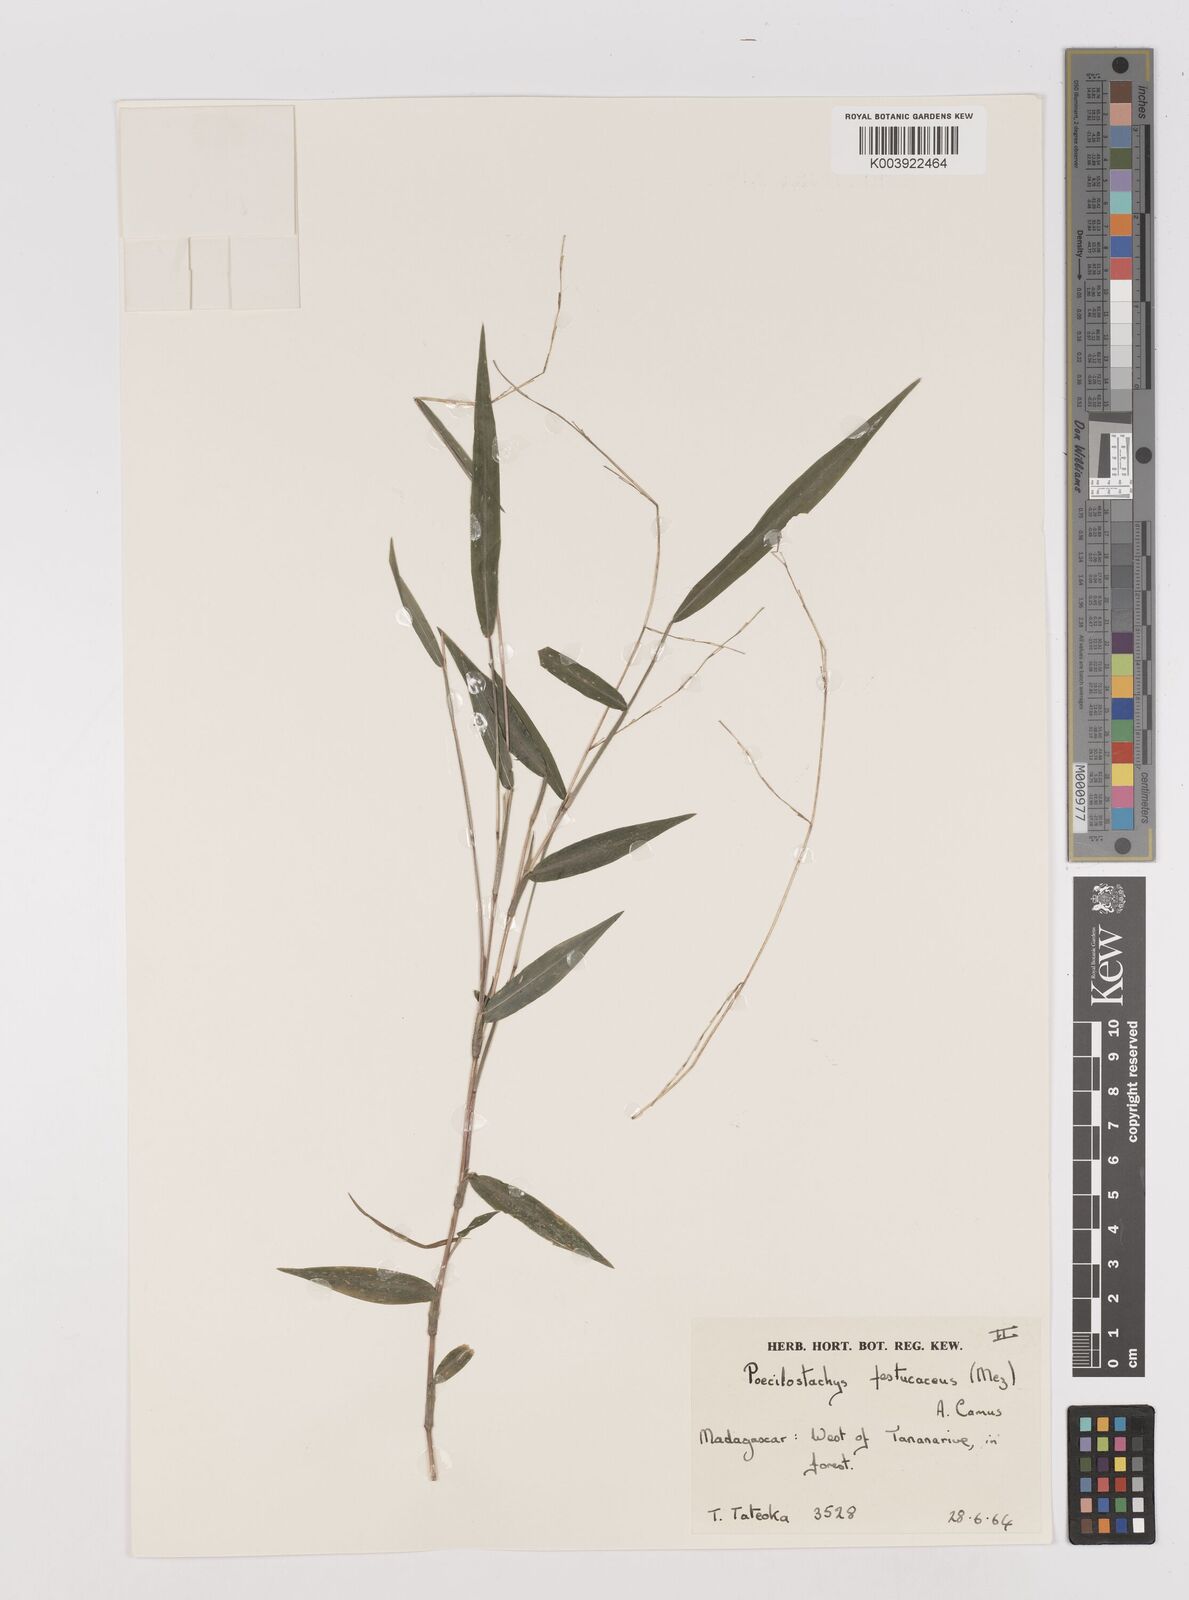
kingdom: Plantae
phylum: Tracheophyta
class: Liliopsida
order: Poales
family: Poaceae
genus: Poecilostachys
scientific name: Poecilostachys baronis
